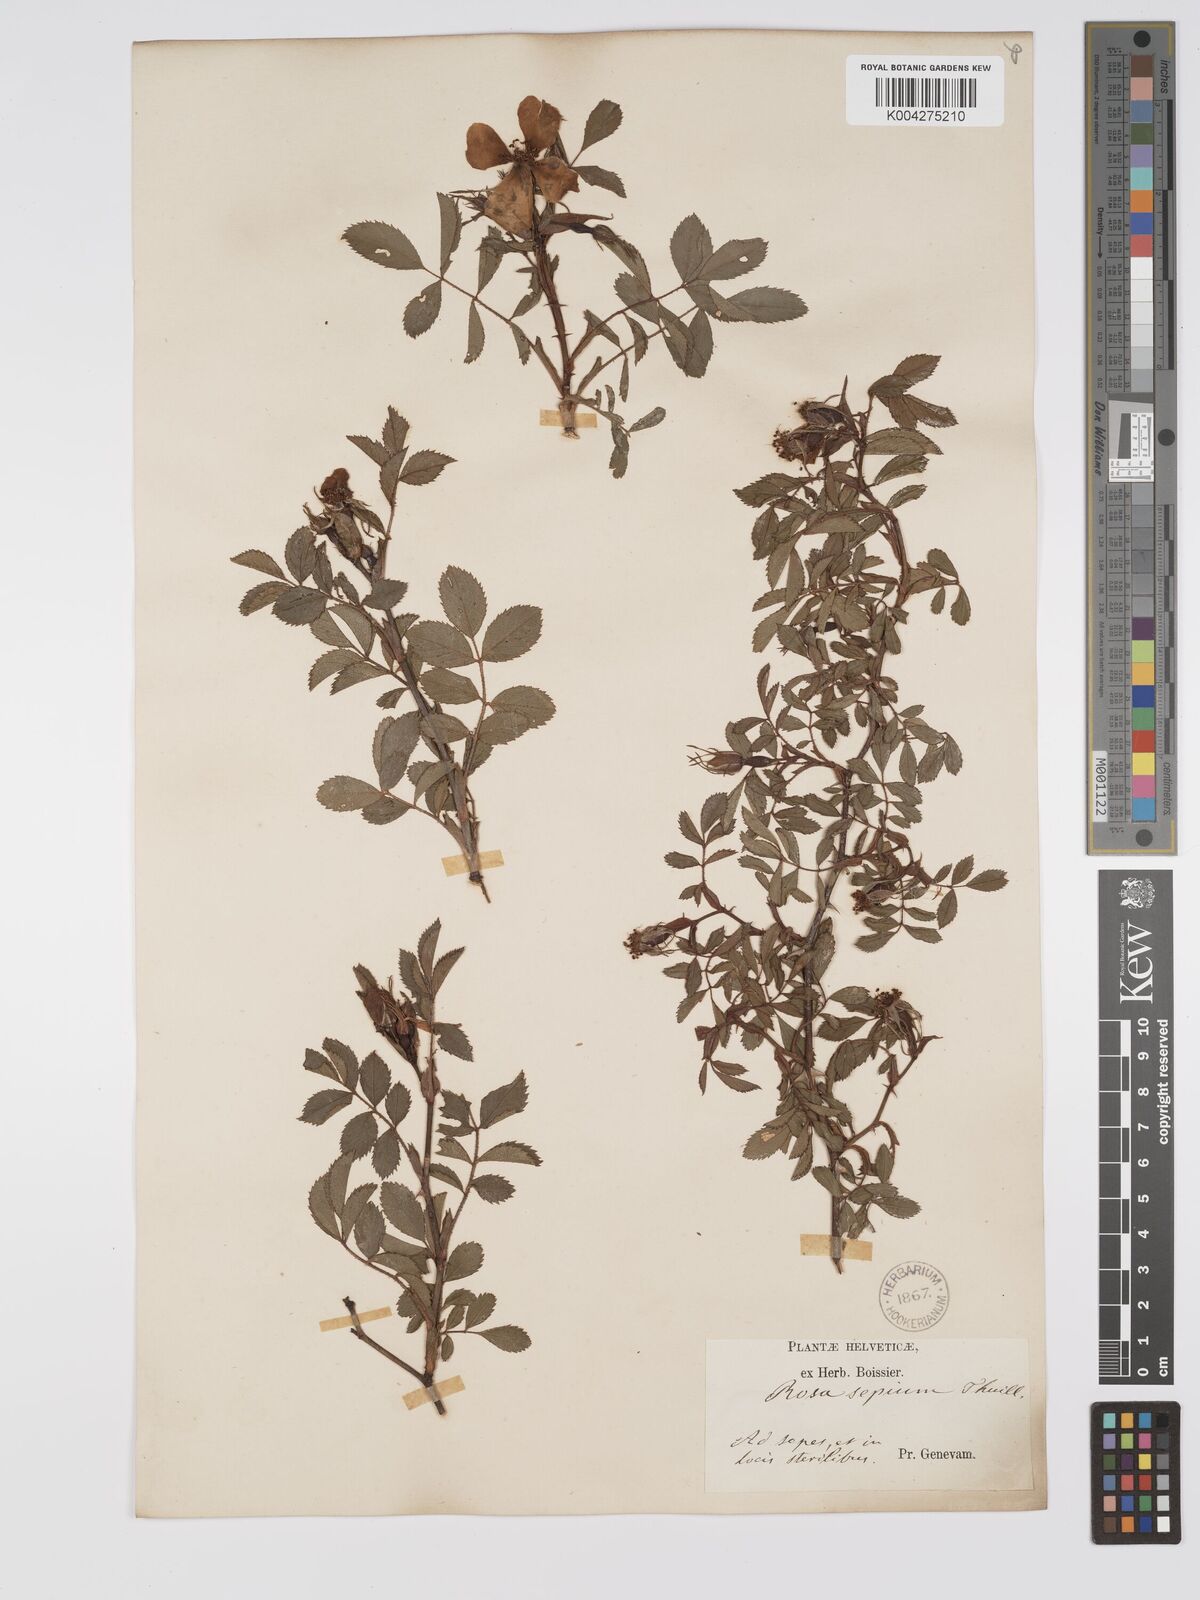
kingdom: Plantae
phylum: Tracheophyta
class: Magnoliopsida
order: Rosales
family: Rosaceae
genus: Rosa
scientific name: Rosa
